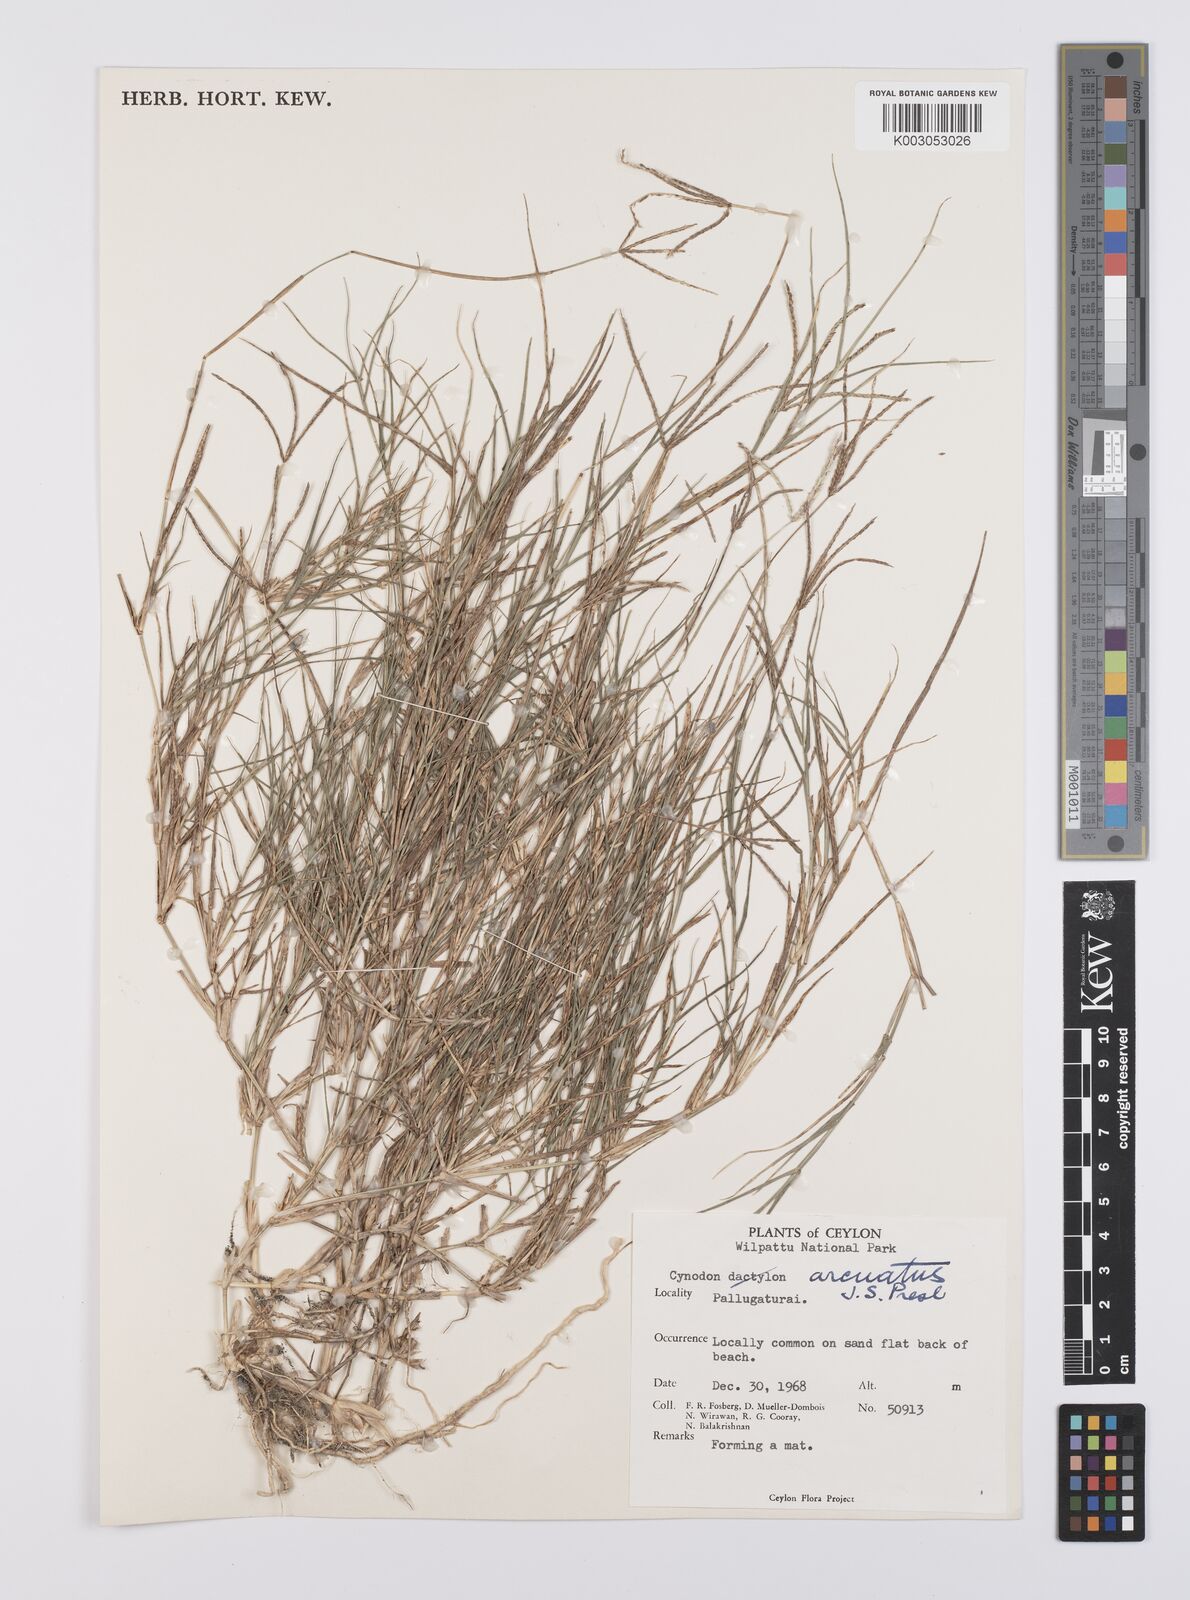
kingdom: Plantae
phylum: Tracheophyta
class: Liliopsida
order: Poales
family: Poaceae
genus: Cynodon
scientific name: Cynodon radiatus
